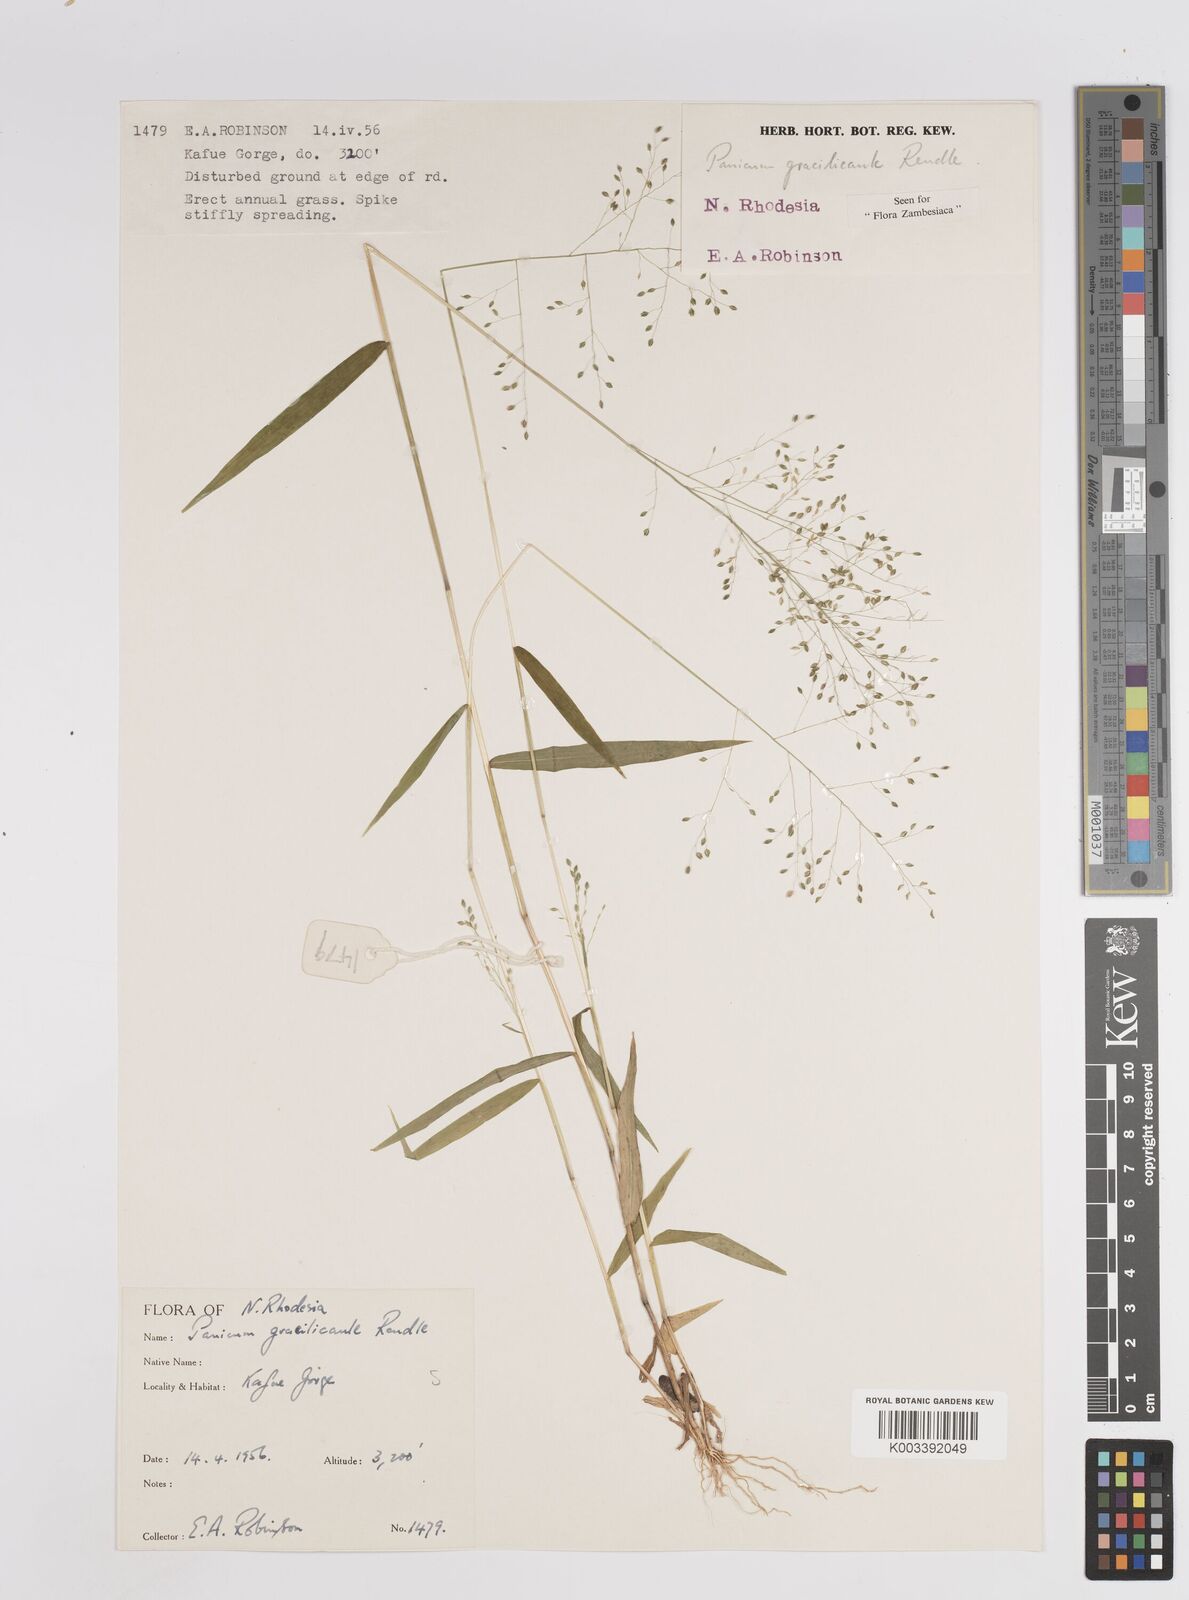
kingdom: Plantae
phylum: Tracheophyta
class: Liliopsida
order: Poales
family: Poaceae
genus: Trichanthecium
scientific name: Trichanthecium gracilicaule
